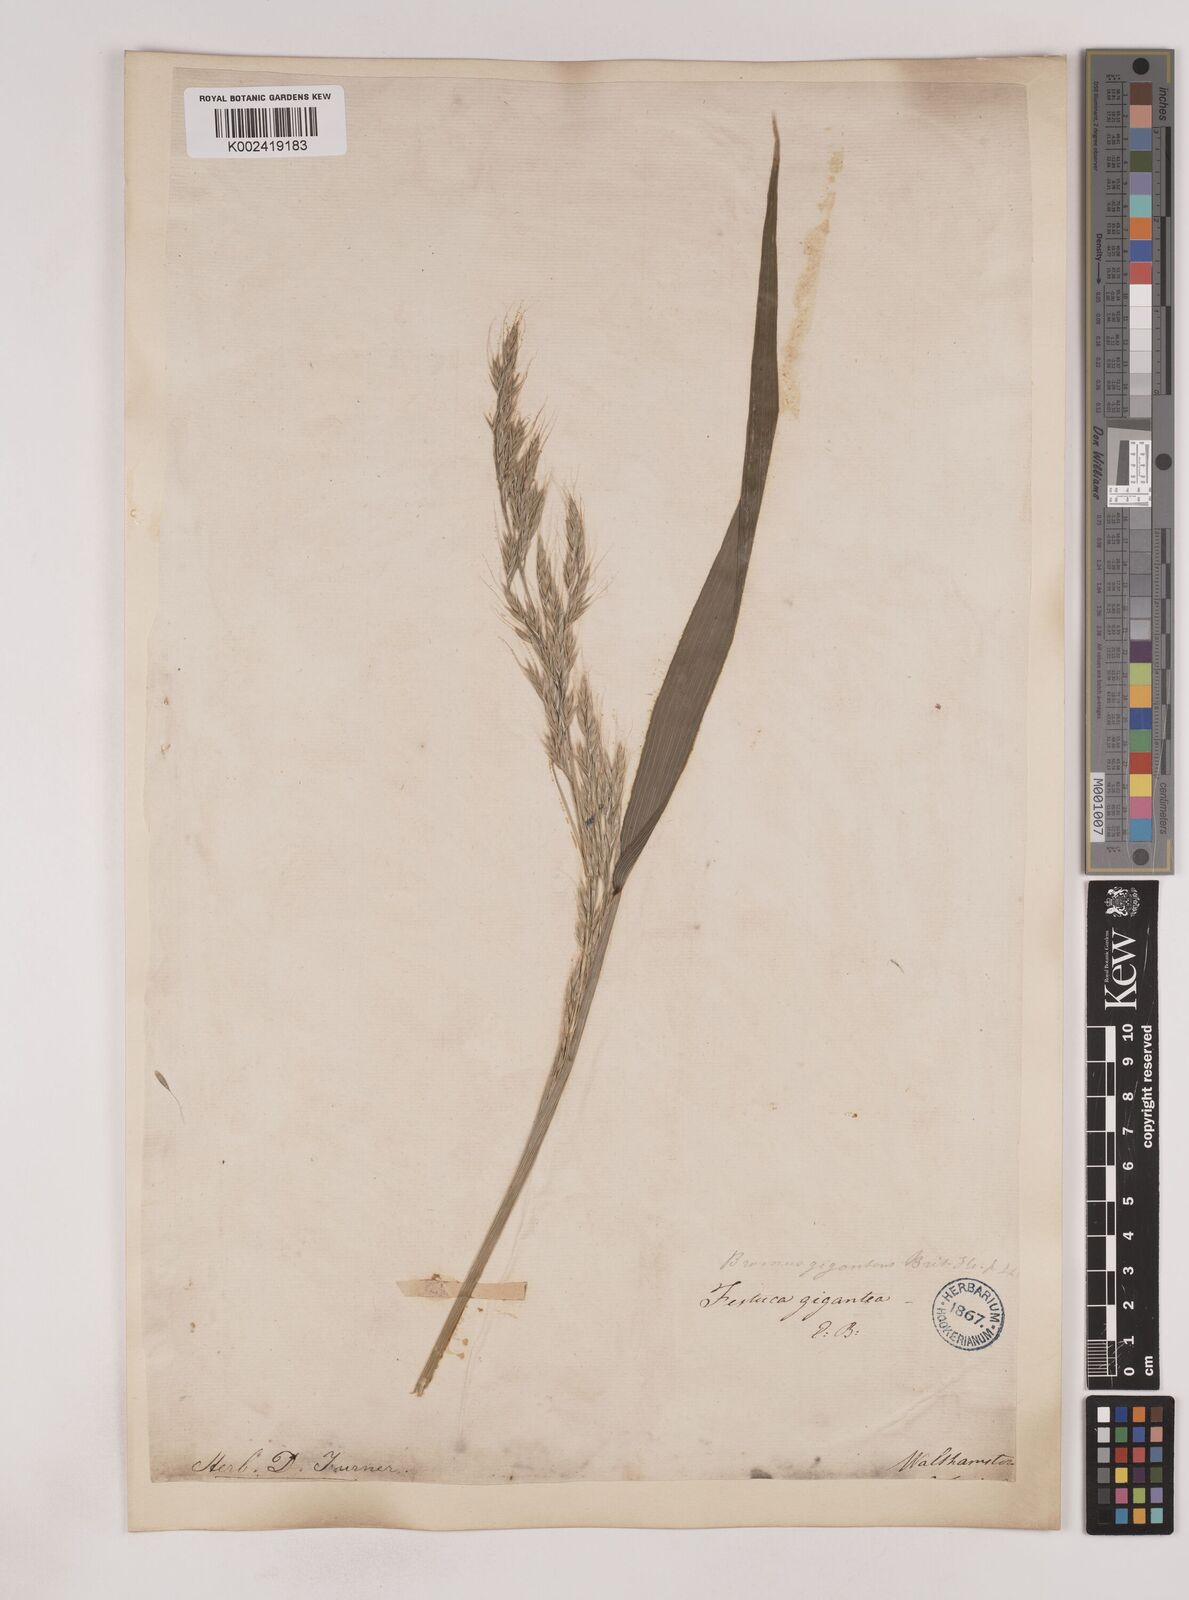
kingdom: Plantae
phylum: Tracheophyta
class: Liliopsida
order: Poales
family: Poaceae
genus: Lolium
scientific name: Lolium giganteum
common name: Giant fescue
